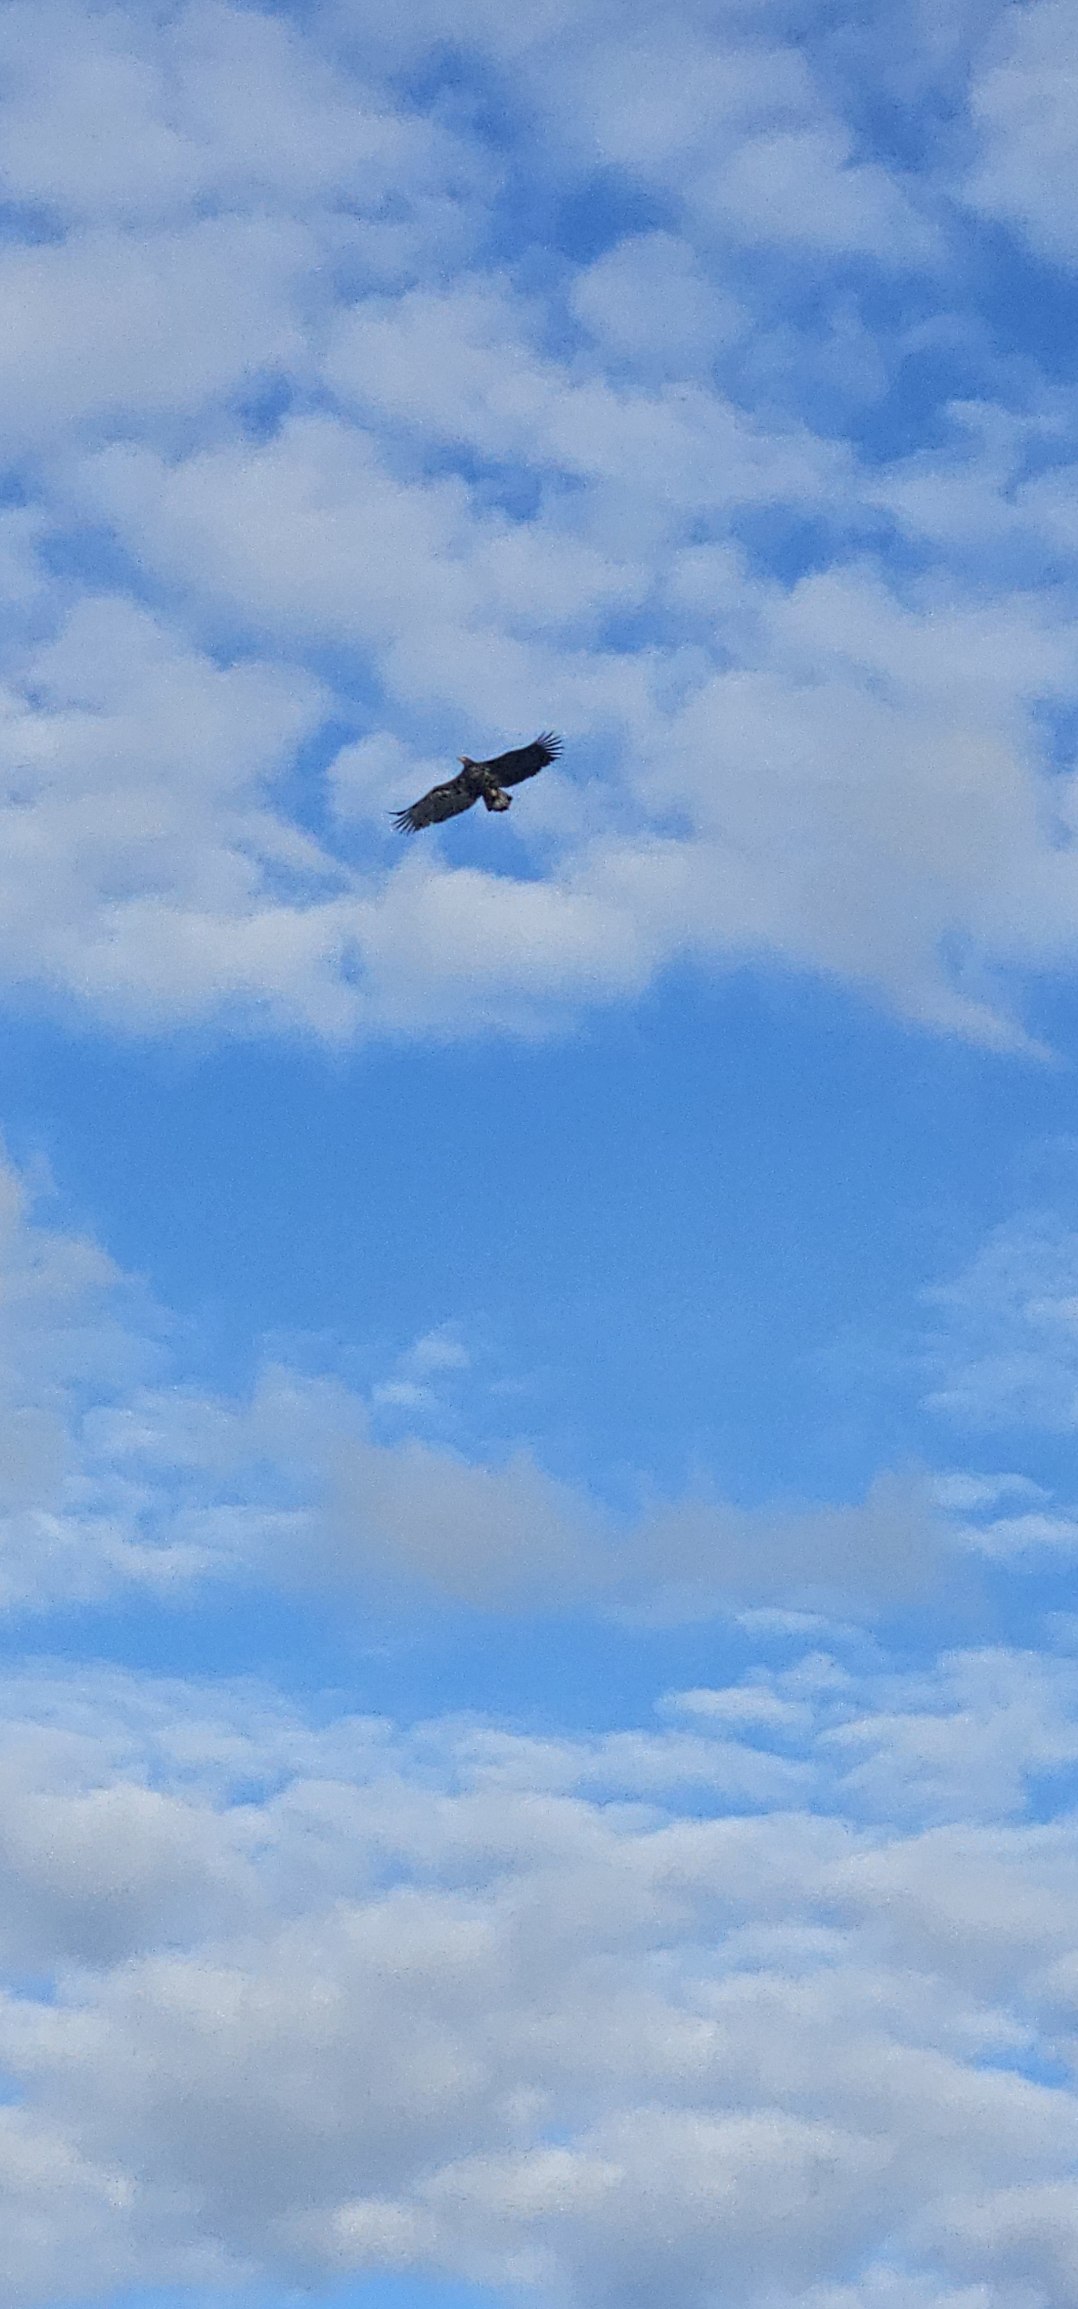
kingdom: Animalia
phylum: Chordata
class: Aves
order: Accipitriformes
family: Accipitridae
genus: Haliaeetus
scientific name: Haliaeetus albicilla
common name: Havørn
